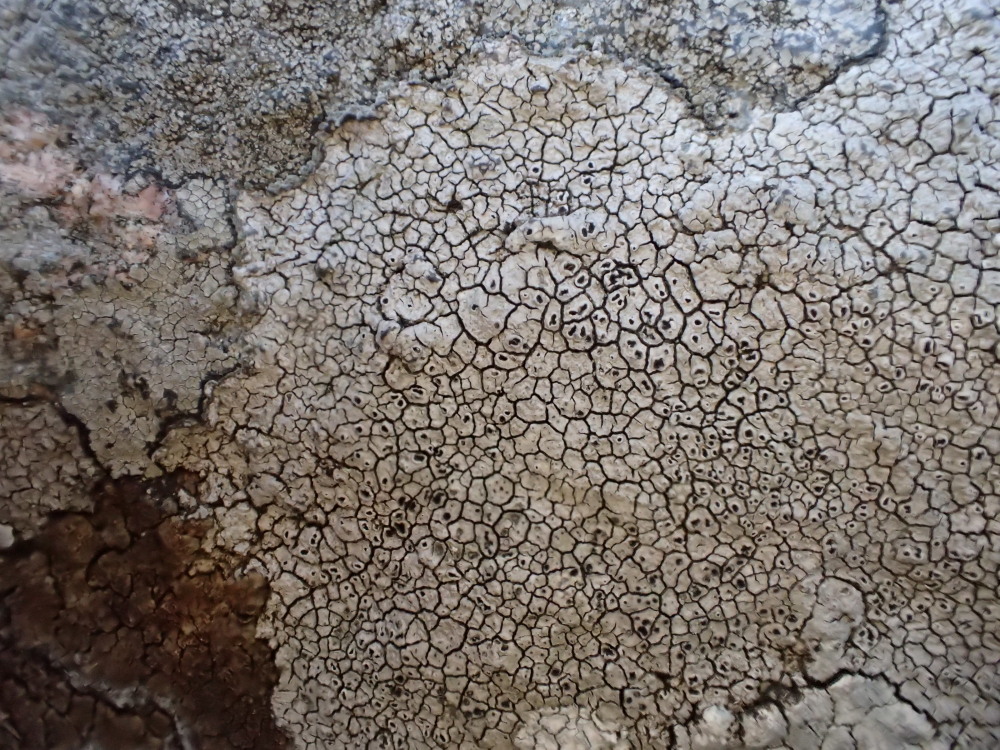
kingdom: Fungi
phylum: Ascomycota
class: Lecanoromycetes
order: Pertusariales
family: Megasporaceae
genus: Aspicilia
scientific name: Aspicilia cinerea
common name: grå hulskivelav
